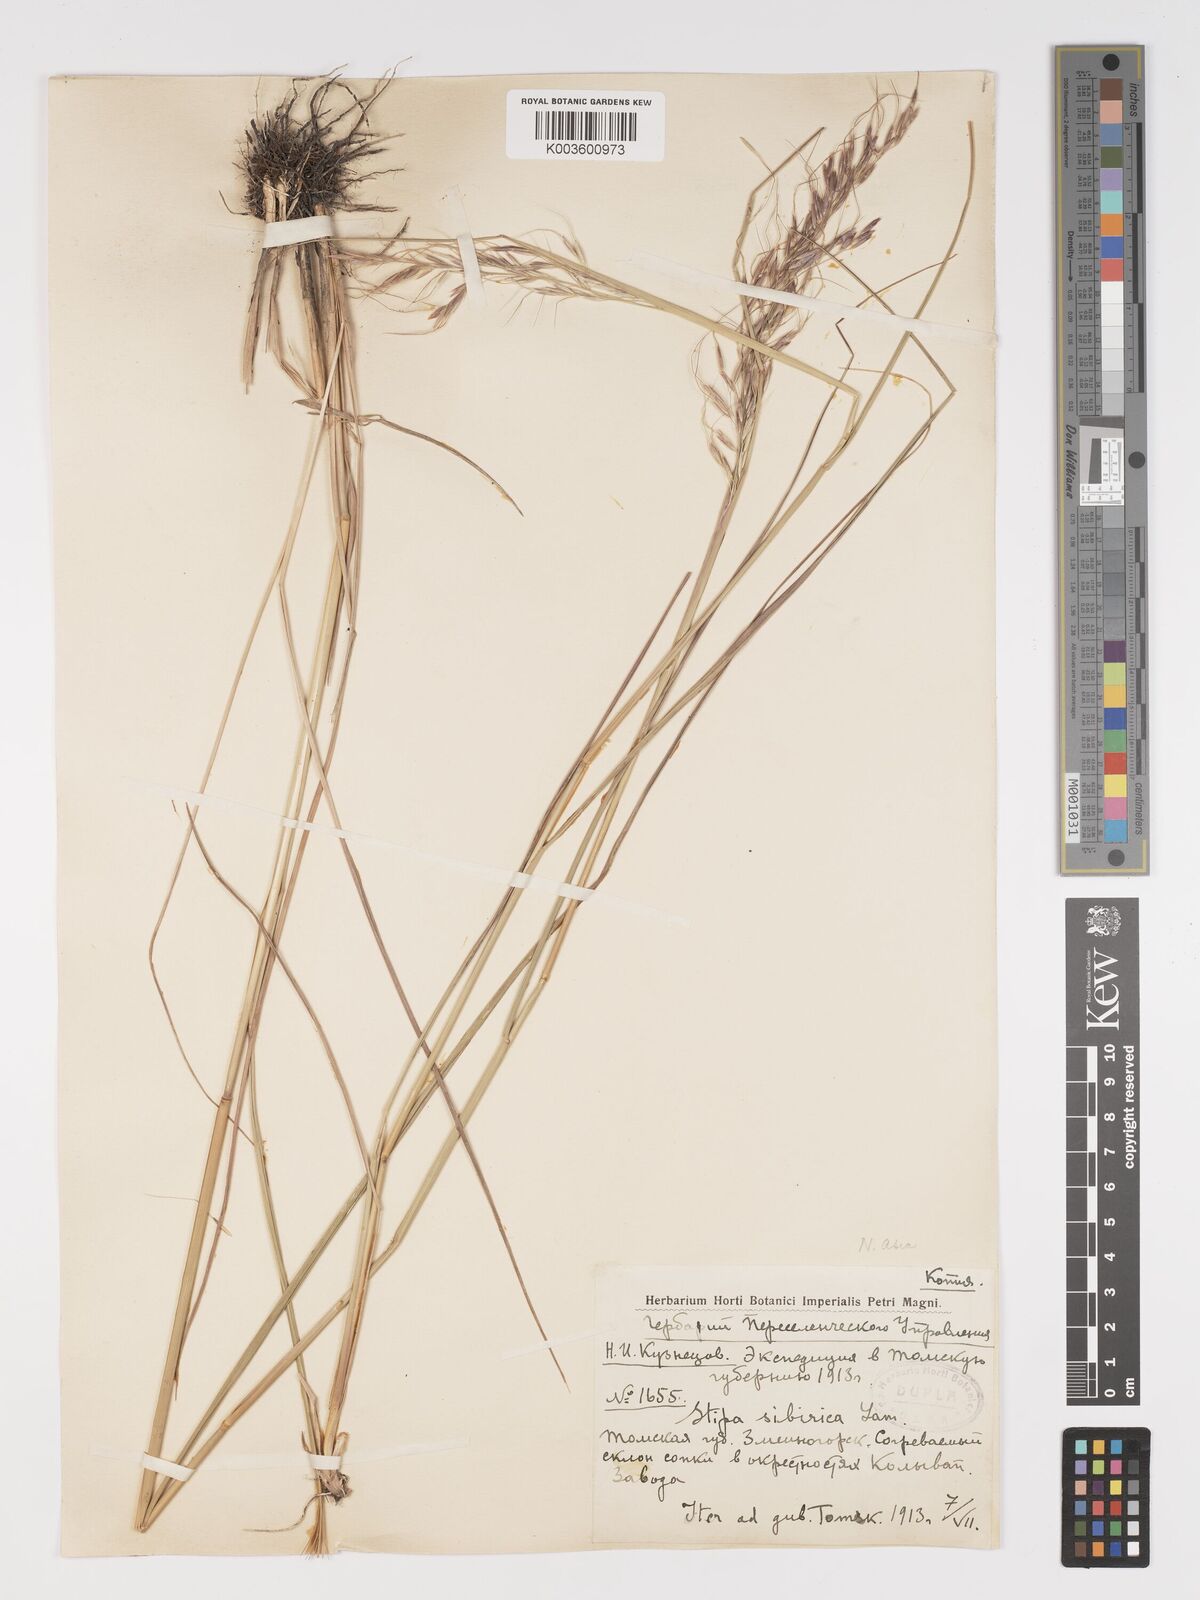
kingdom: Plantae
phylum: Tracheophyta
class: Liliopsida
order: Poales
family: Poaceae
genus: Achnatherum
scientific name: Achnatherum sibiricum
